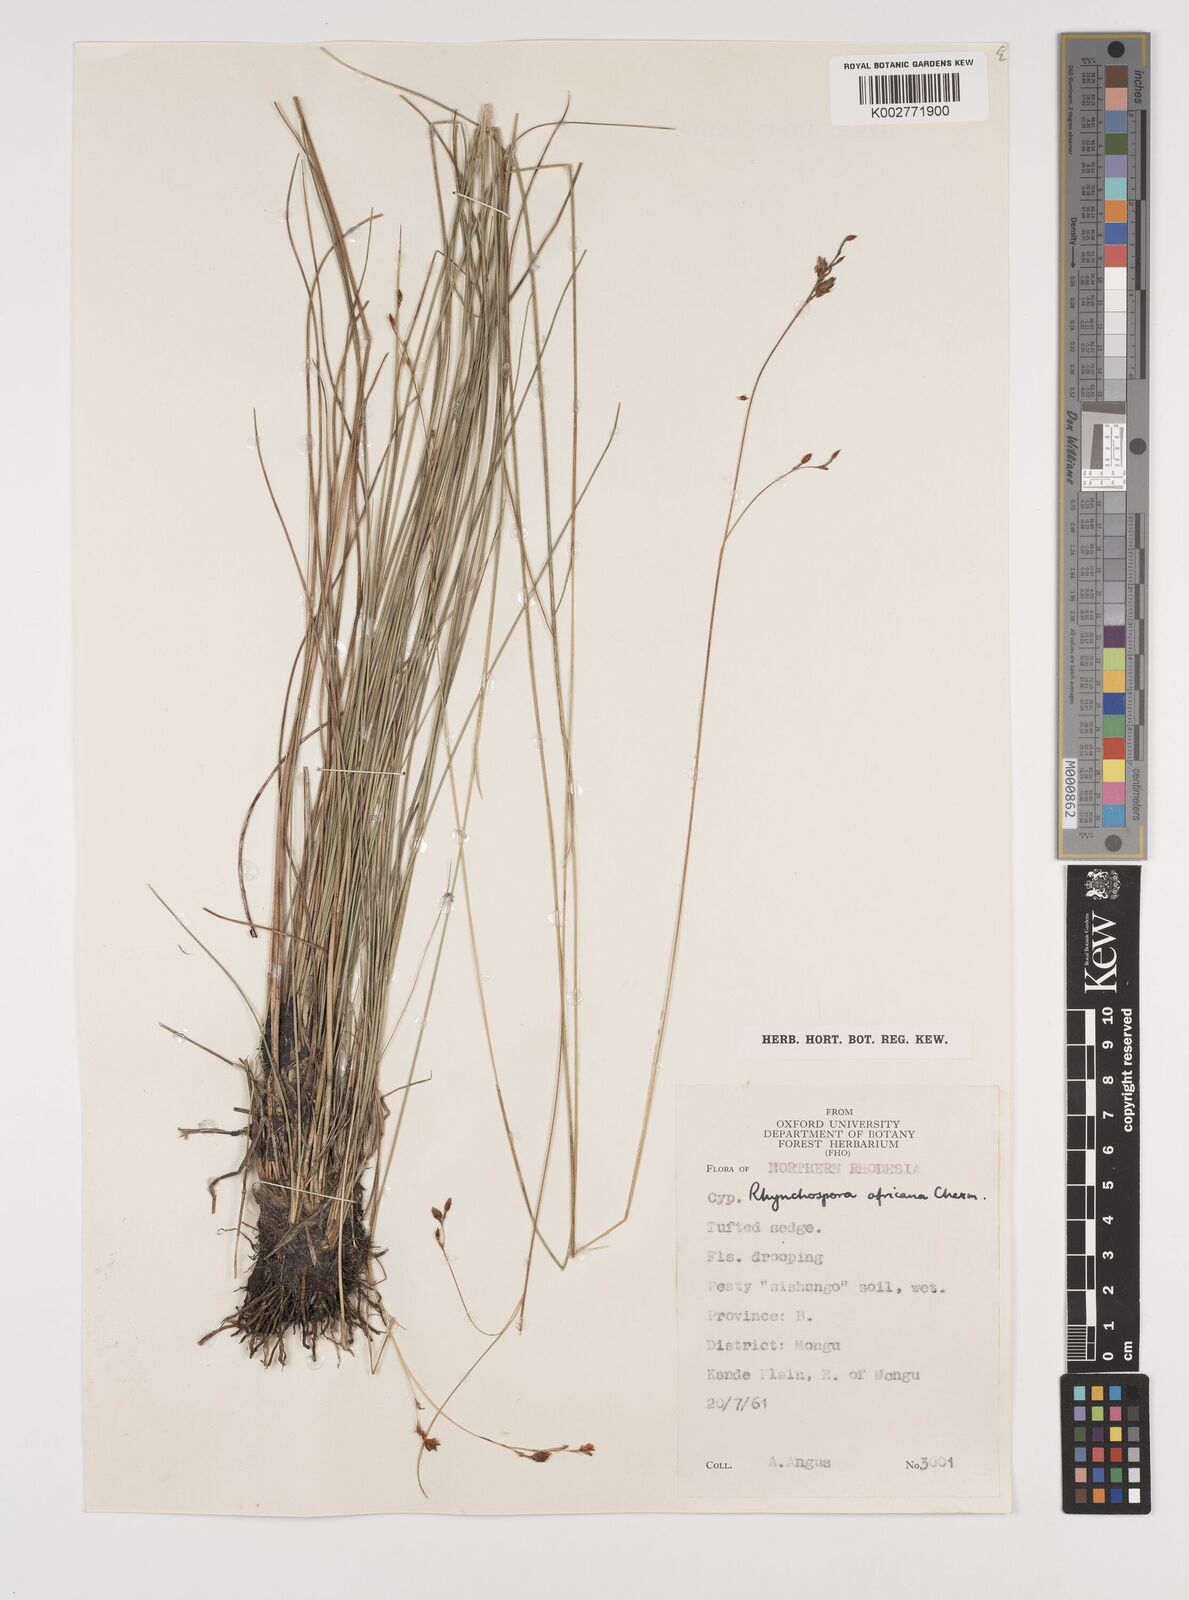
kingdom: Plantae
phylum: Tracheophyta
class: Liliopsida
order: Poales
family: Cyperaceae
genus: Rhynchospora
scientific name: Rhynchospora angolensis
